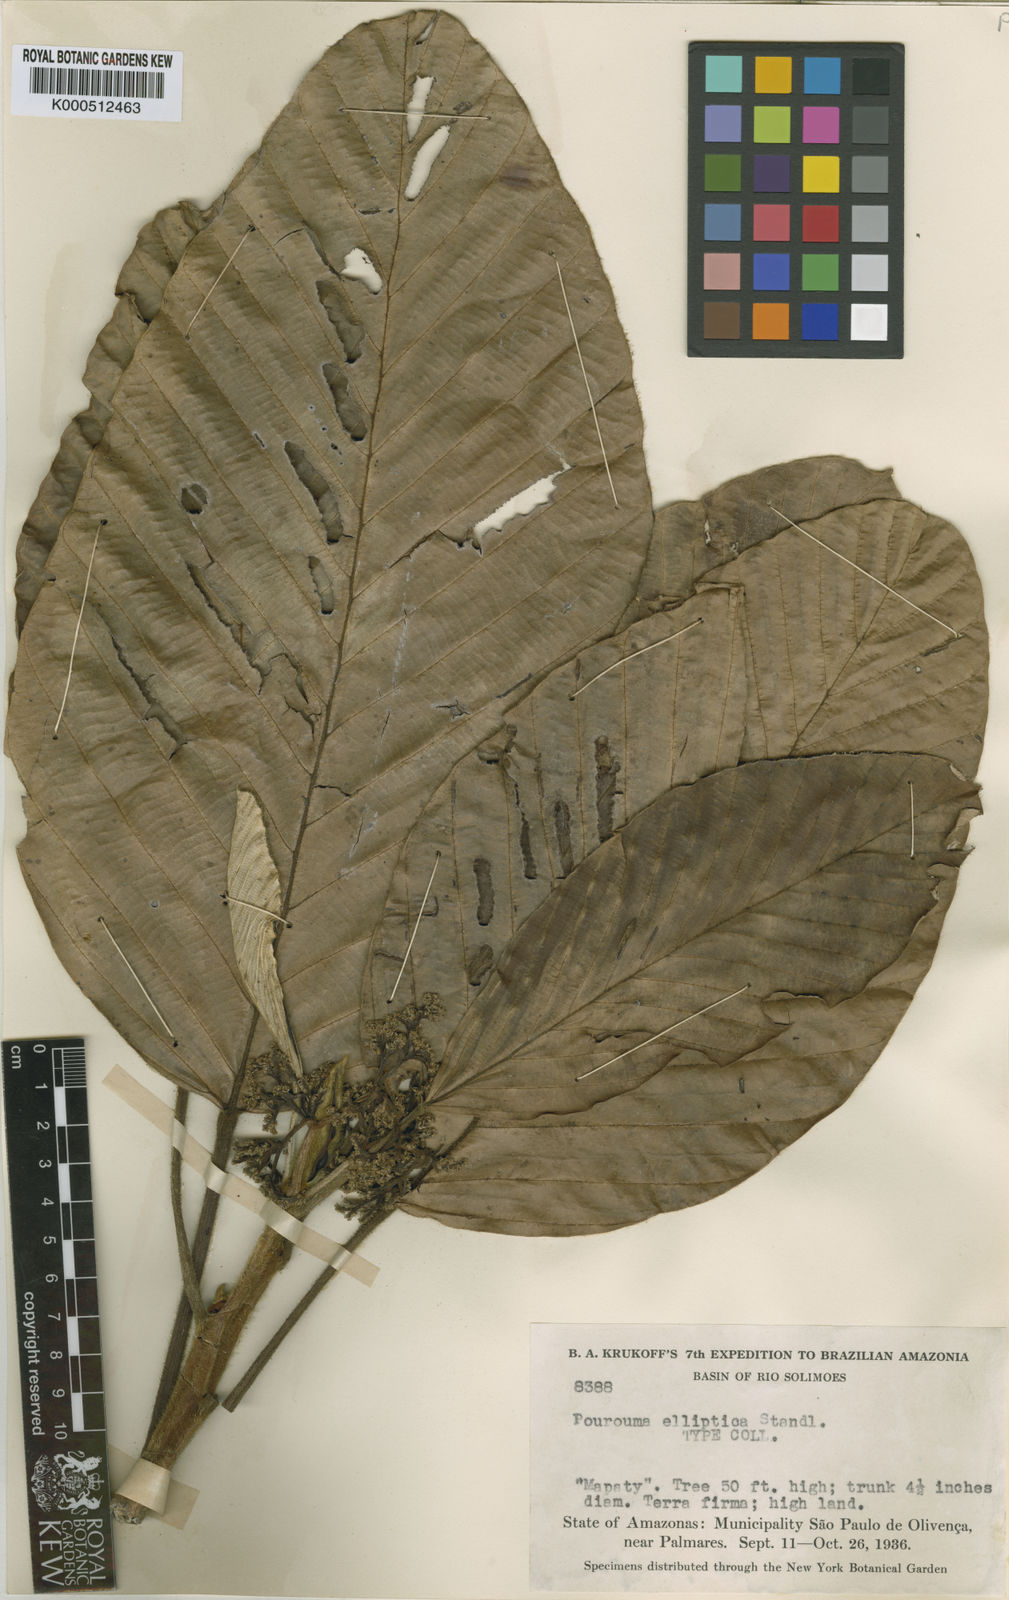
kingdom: Plantae
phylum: Tracheophyta
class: Magnoliopsida
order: Rosales
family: Urticaceae
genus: Pourouma
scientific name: Pourouma elliptica
